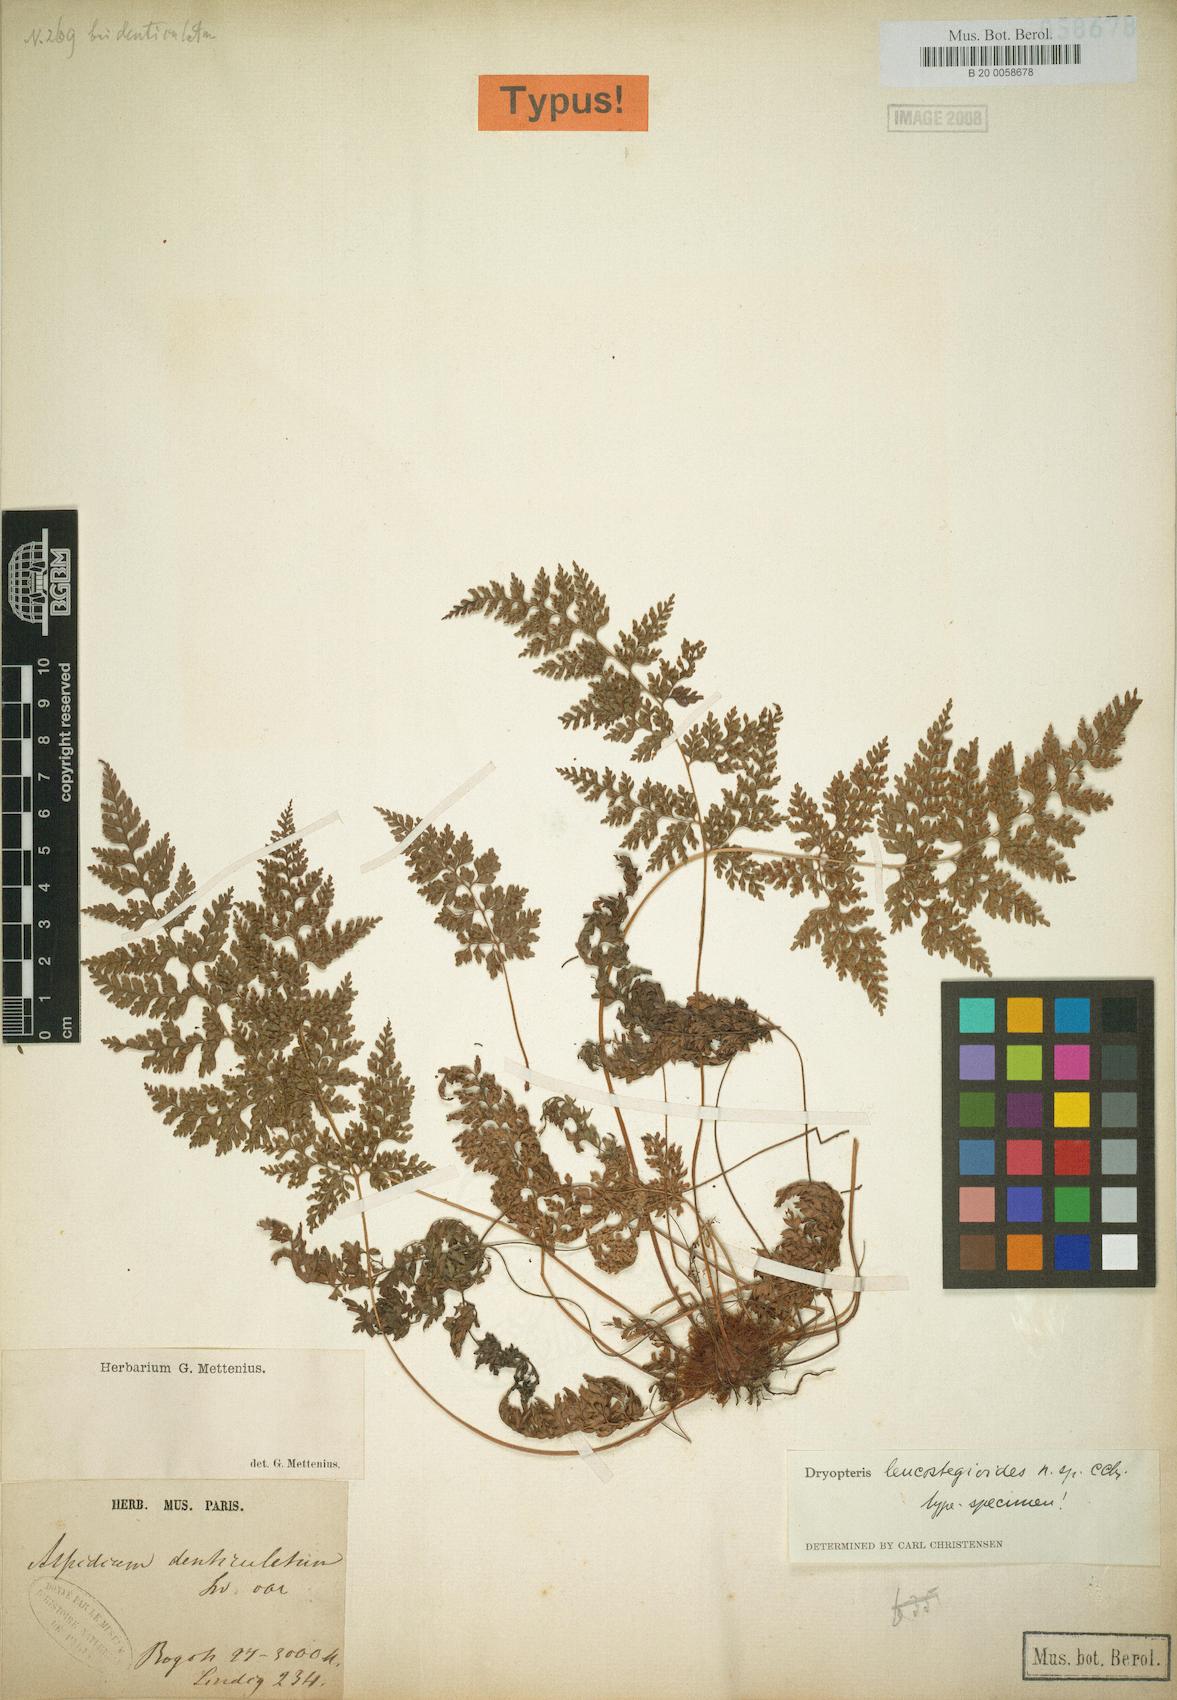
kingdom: Plantae
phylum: Tracheophyta
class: Polypodiopsida
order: Polypodiales
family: Dryopteridaceae
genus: Arachniodes
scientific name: Arachniodes leucostegioides
